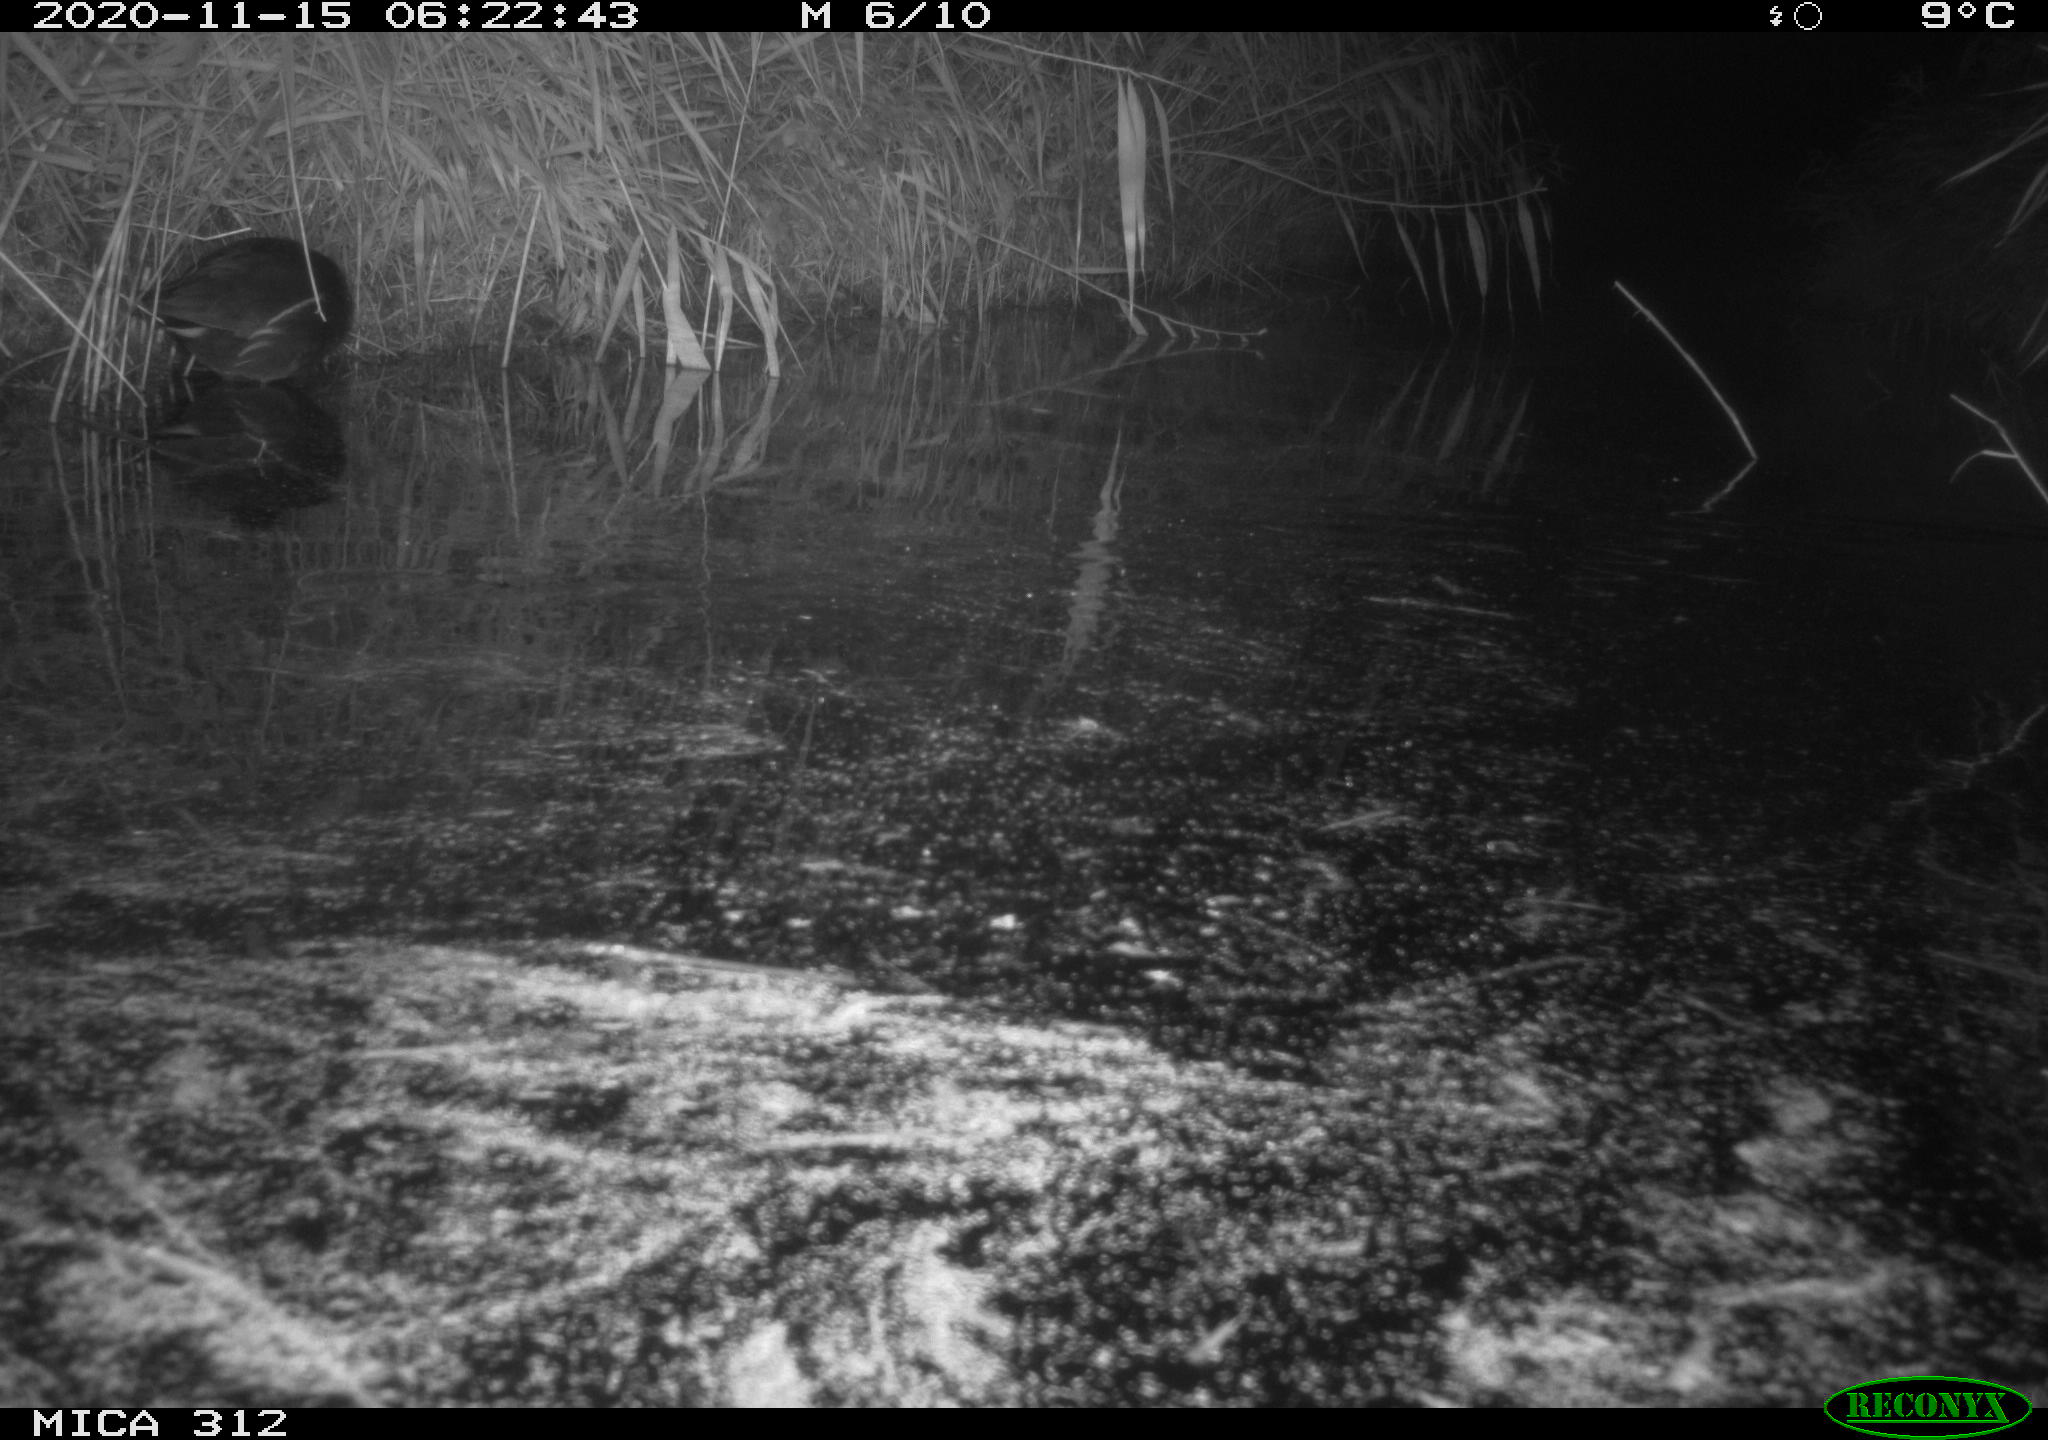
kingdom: Animalia
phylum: Chordata
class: Mammalia
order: Rodentia
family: Muridae
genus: Rattus
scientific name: Rattus norvegicus
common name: Brown rat
